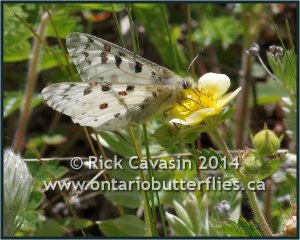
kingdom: Animalia
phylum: Arthropoda
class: Insecta
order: Lepidoptera
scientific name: Lepidoptera
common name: Butterflies
